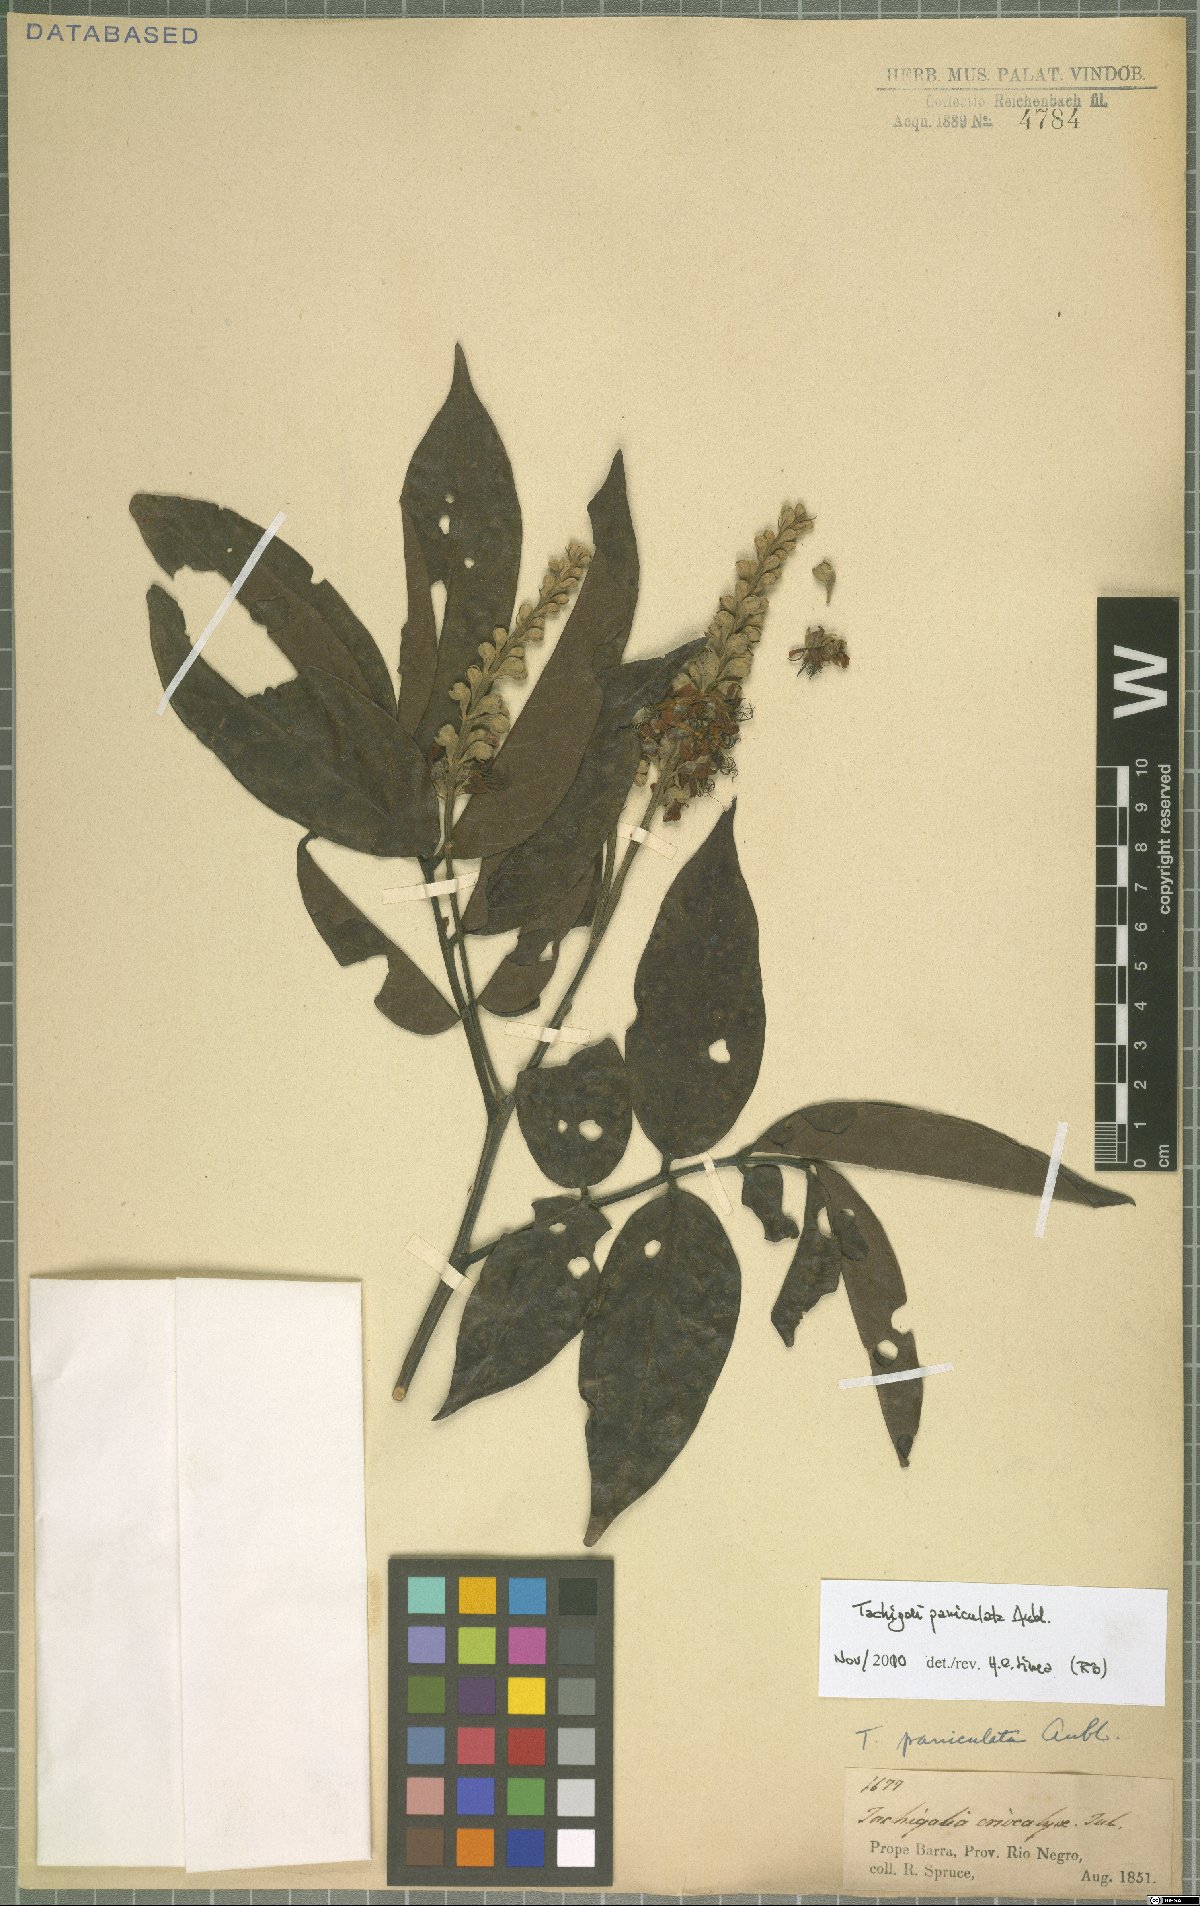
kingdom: Plantae
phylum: Tracheophyta
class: Magnoliopsida
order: Fabales
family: Fabaceae
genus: Tachigali
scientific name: Tachigali paniculata
